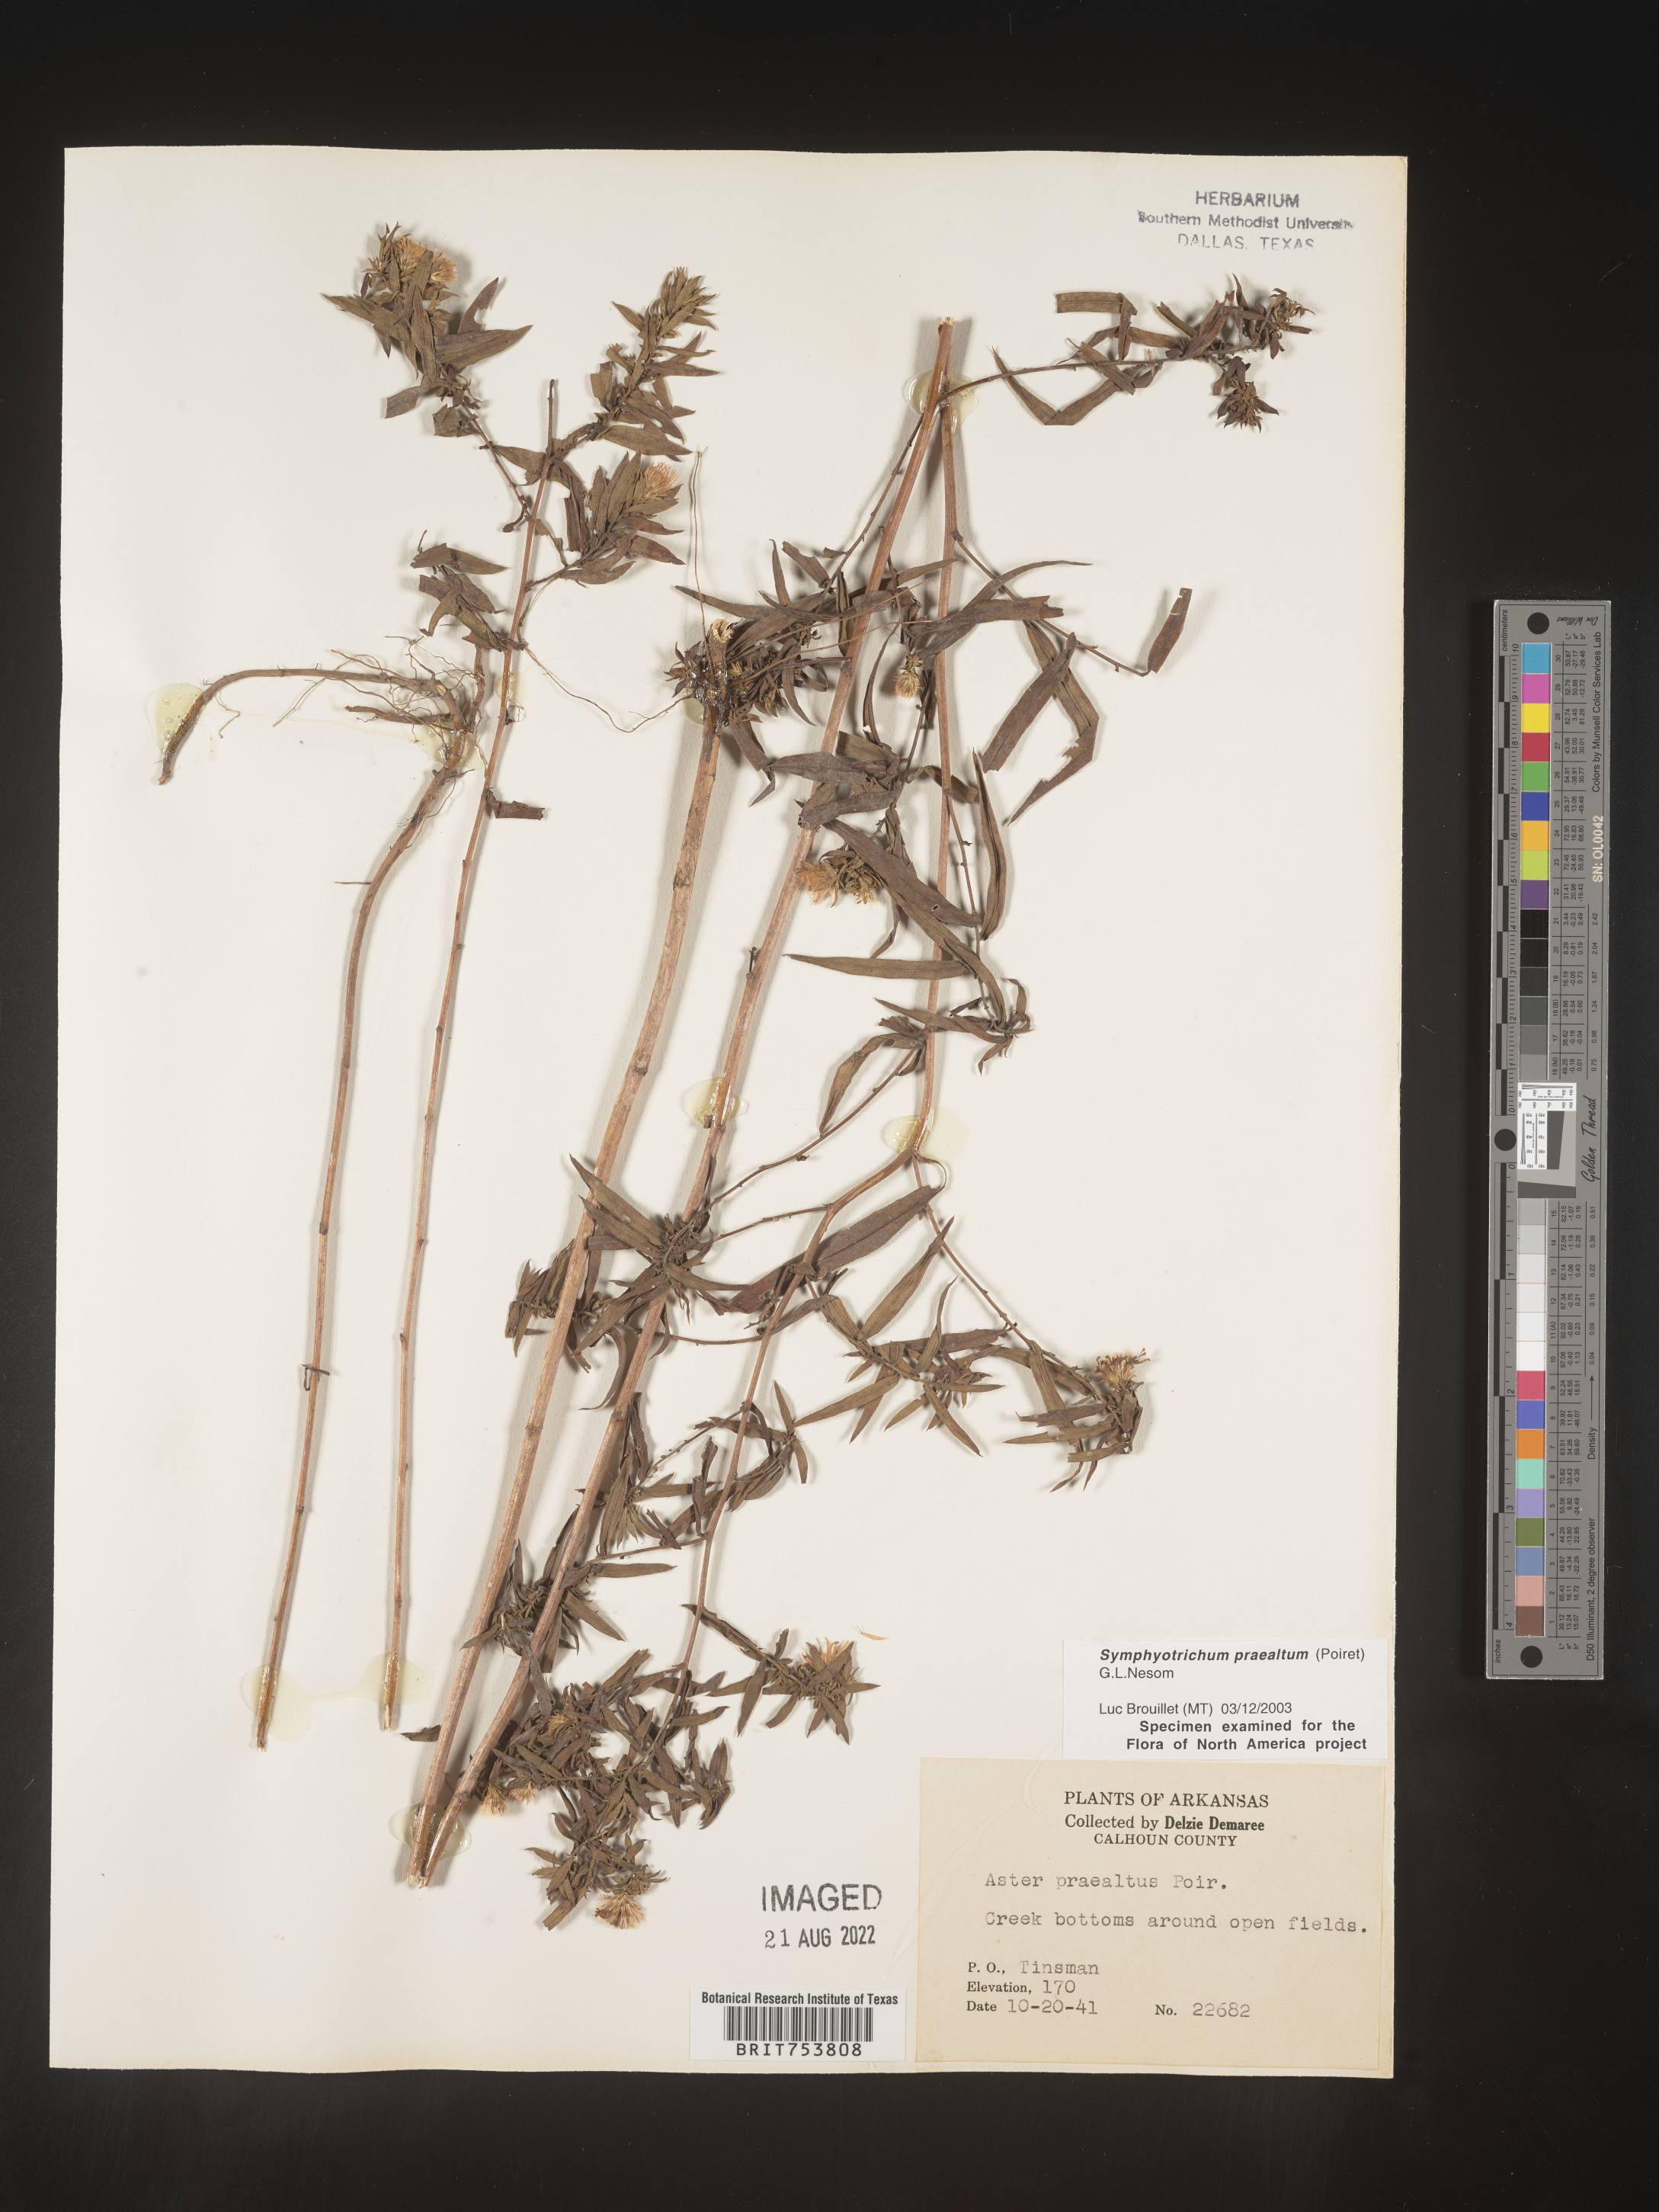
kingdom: Plantae
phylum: Tracheophyta
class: Magnoliopsida
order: Asterales
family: Asteraceae
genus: Symphyotrichum
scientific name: Symphyotrichum praealtum
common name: Willow aster
